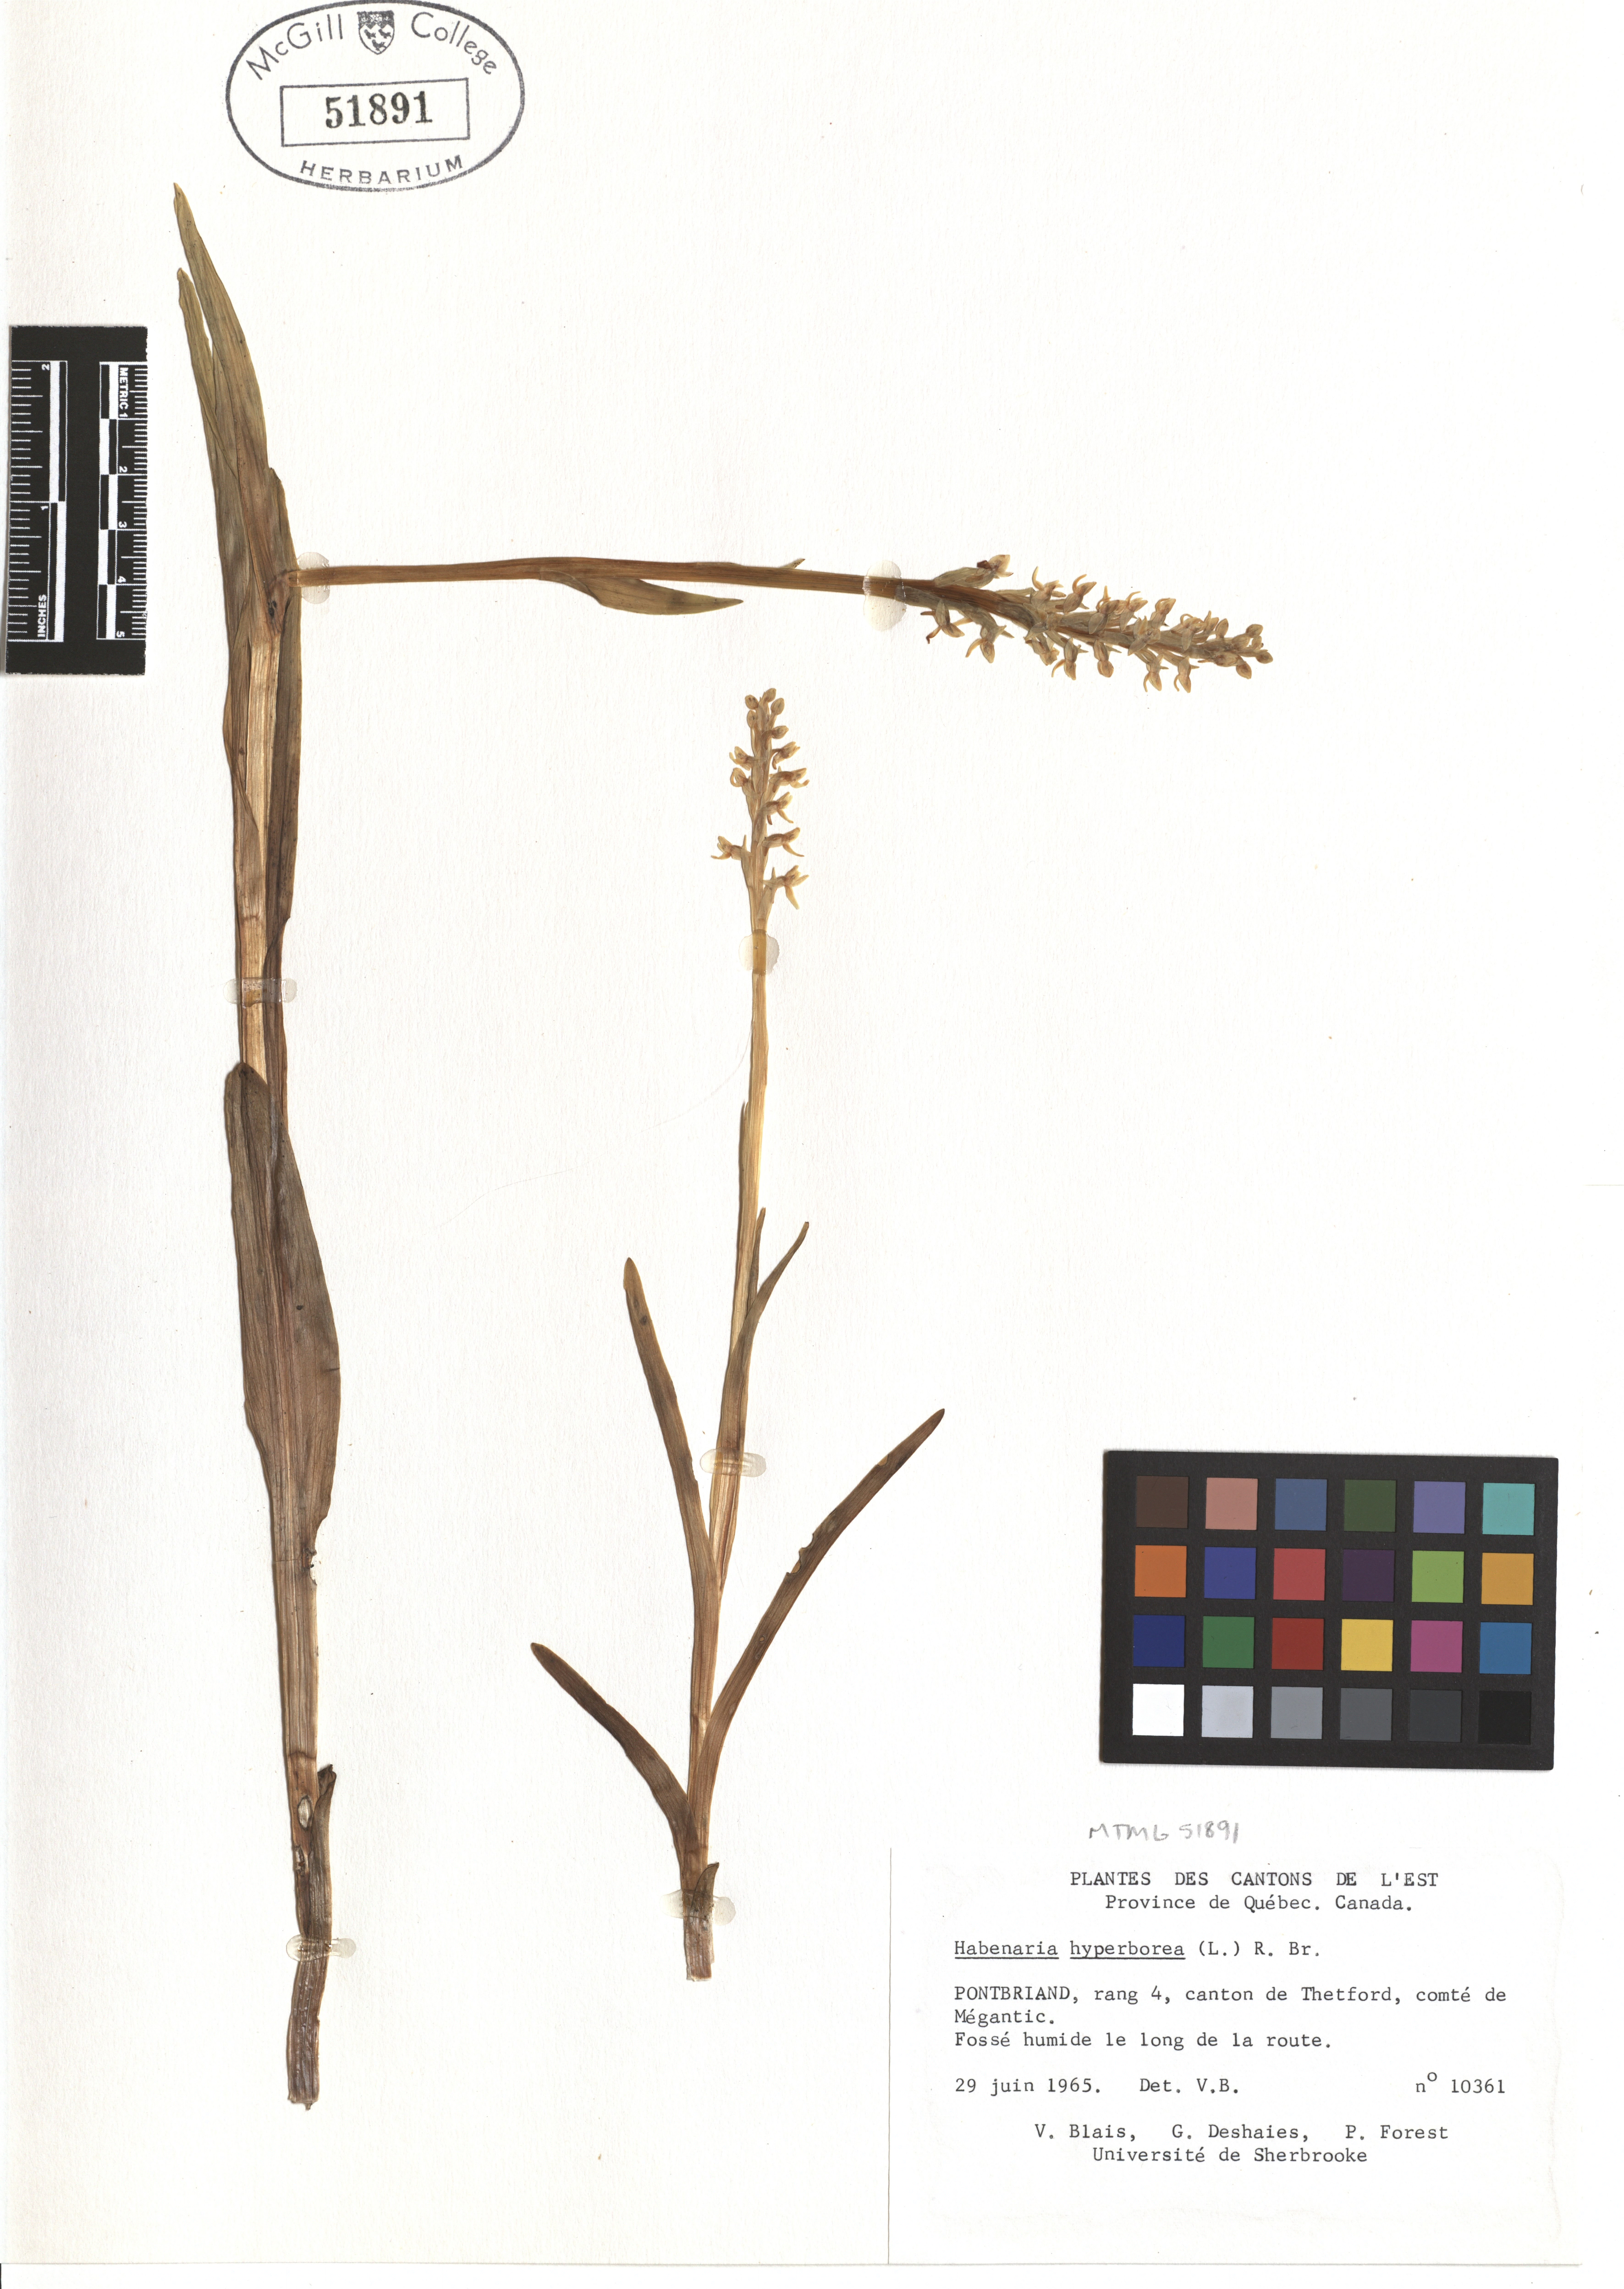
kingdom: Plantae
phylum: Tracheophyta
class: Liliopsida
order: Asparagales
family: Orchidaceae
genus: Platanthera
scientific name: Platanthera hyperborea
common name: Northern green orchid
